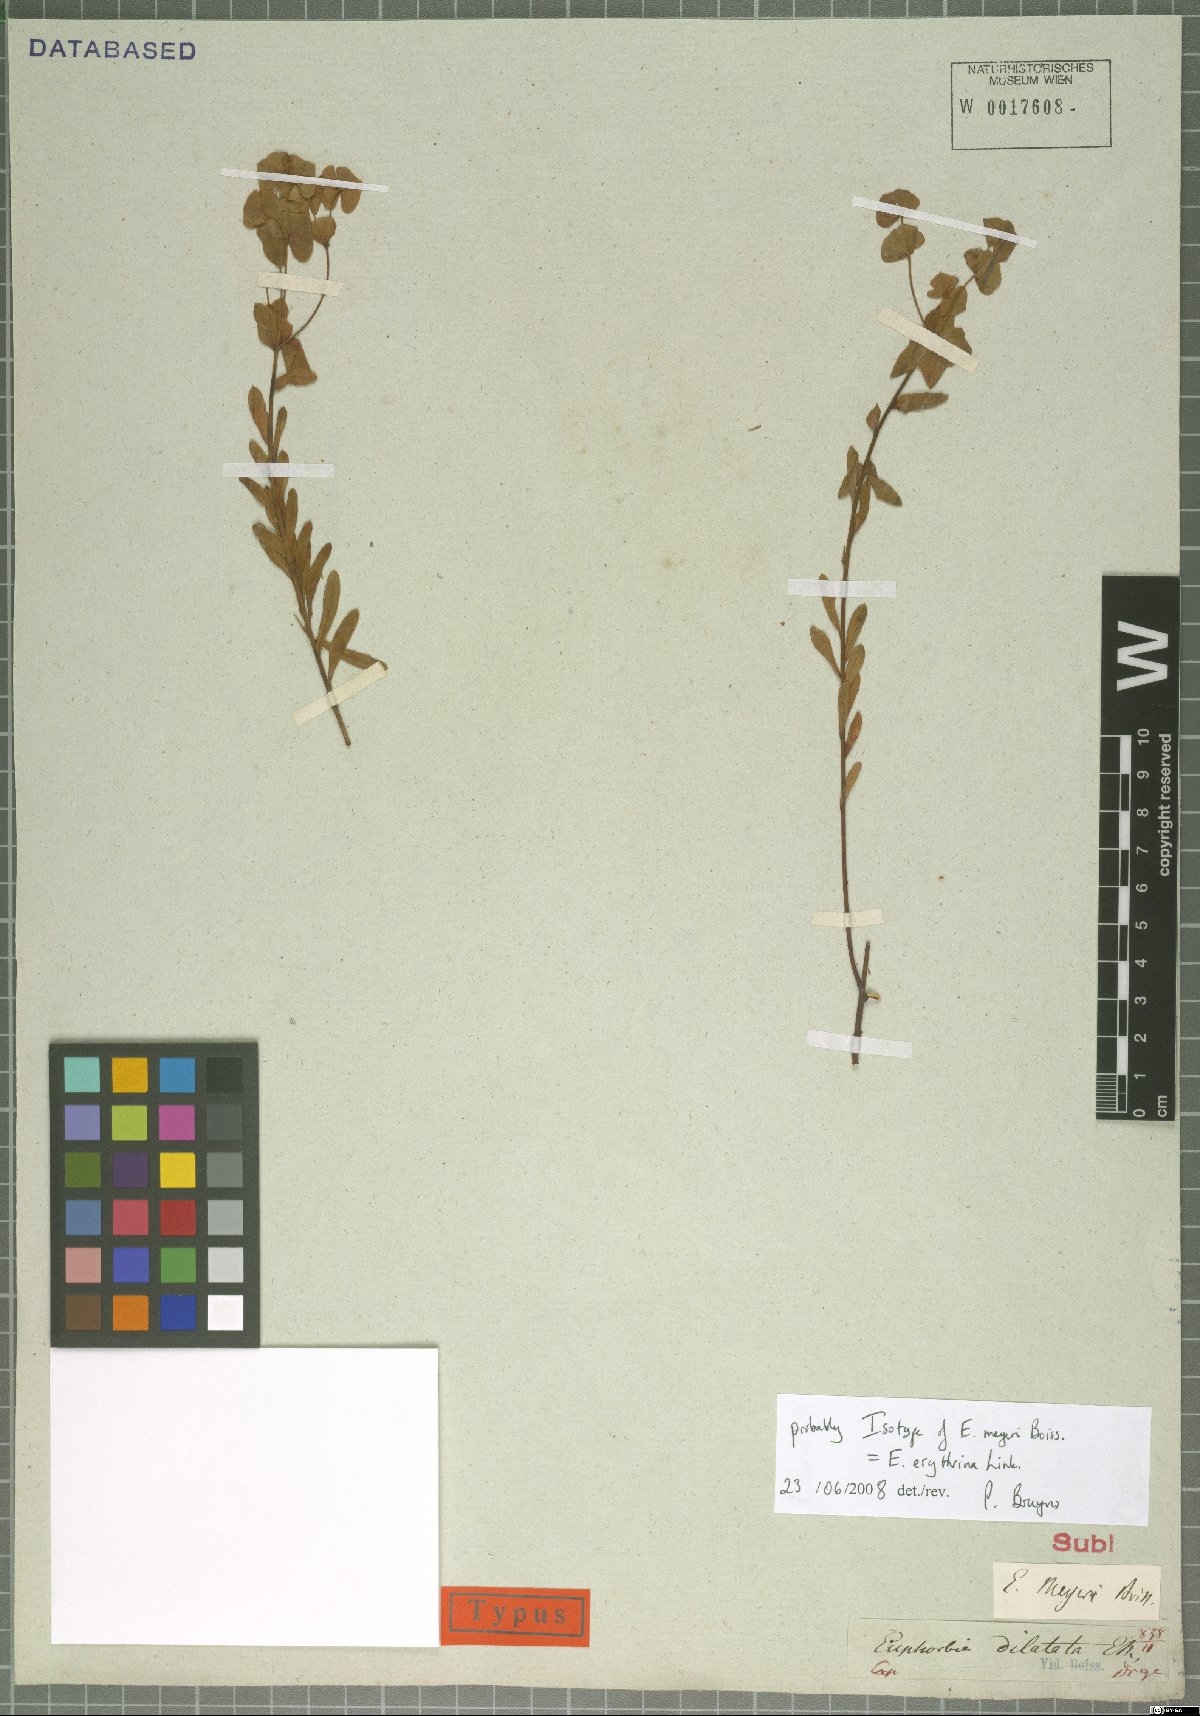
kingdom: Plantae
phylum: Tracheophyta
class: Magnoliopsida
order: Malpighiales
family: Euphorbiaceae
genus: Euphorbia
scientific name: Euphorbia genistoides
